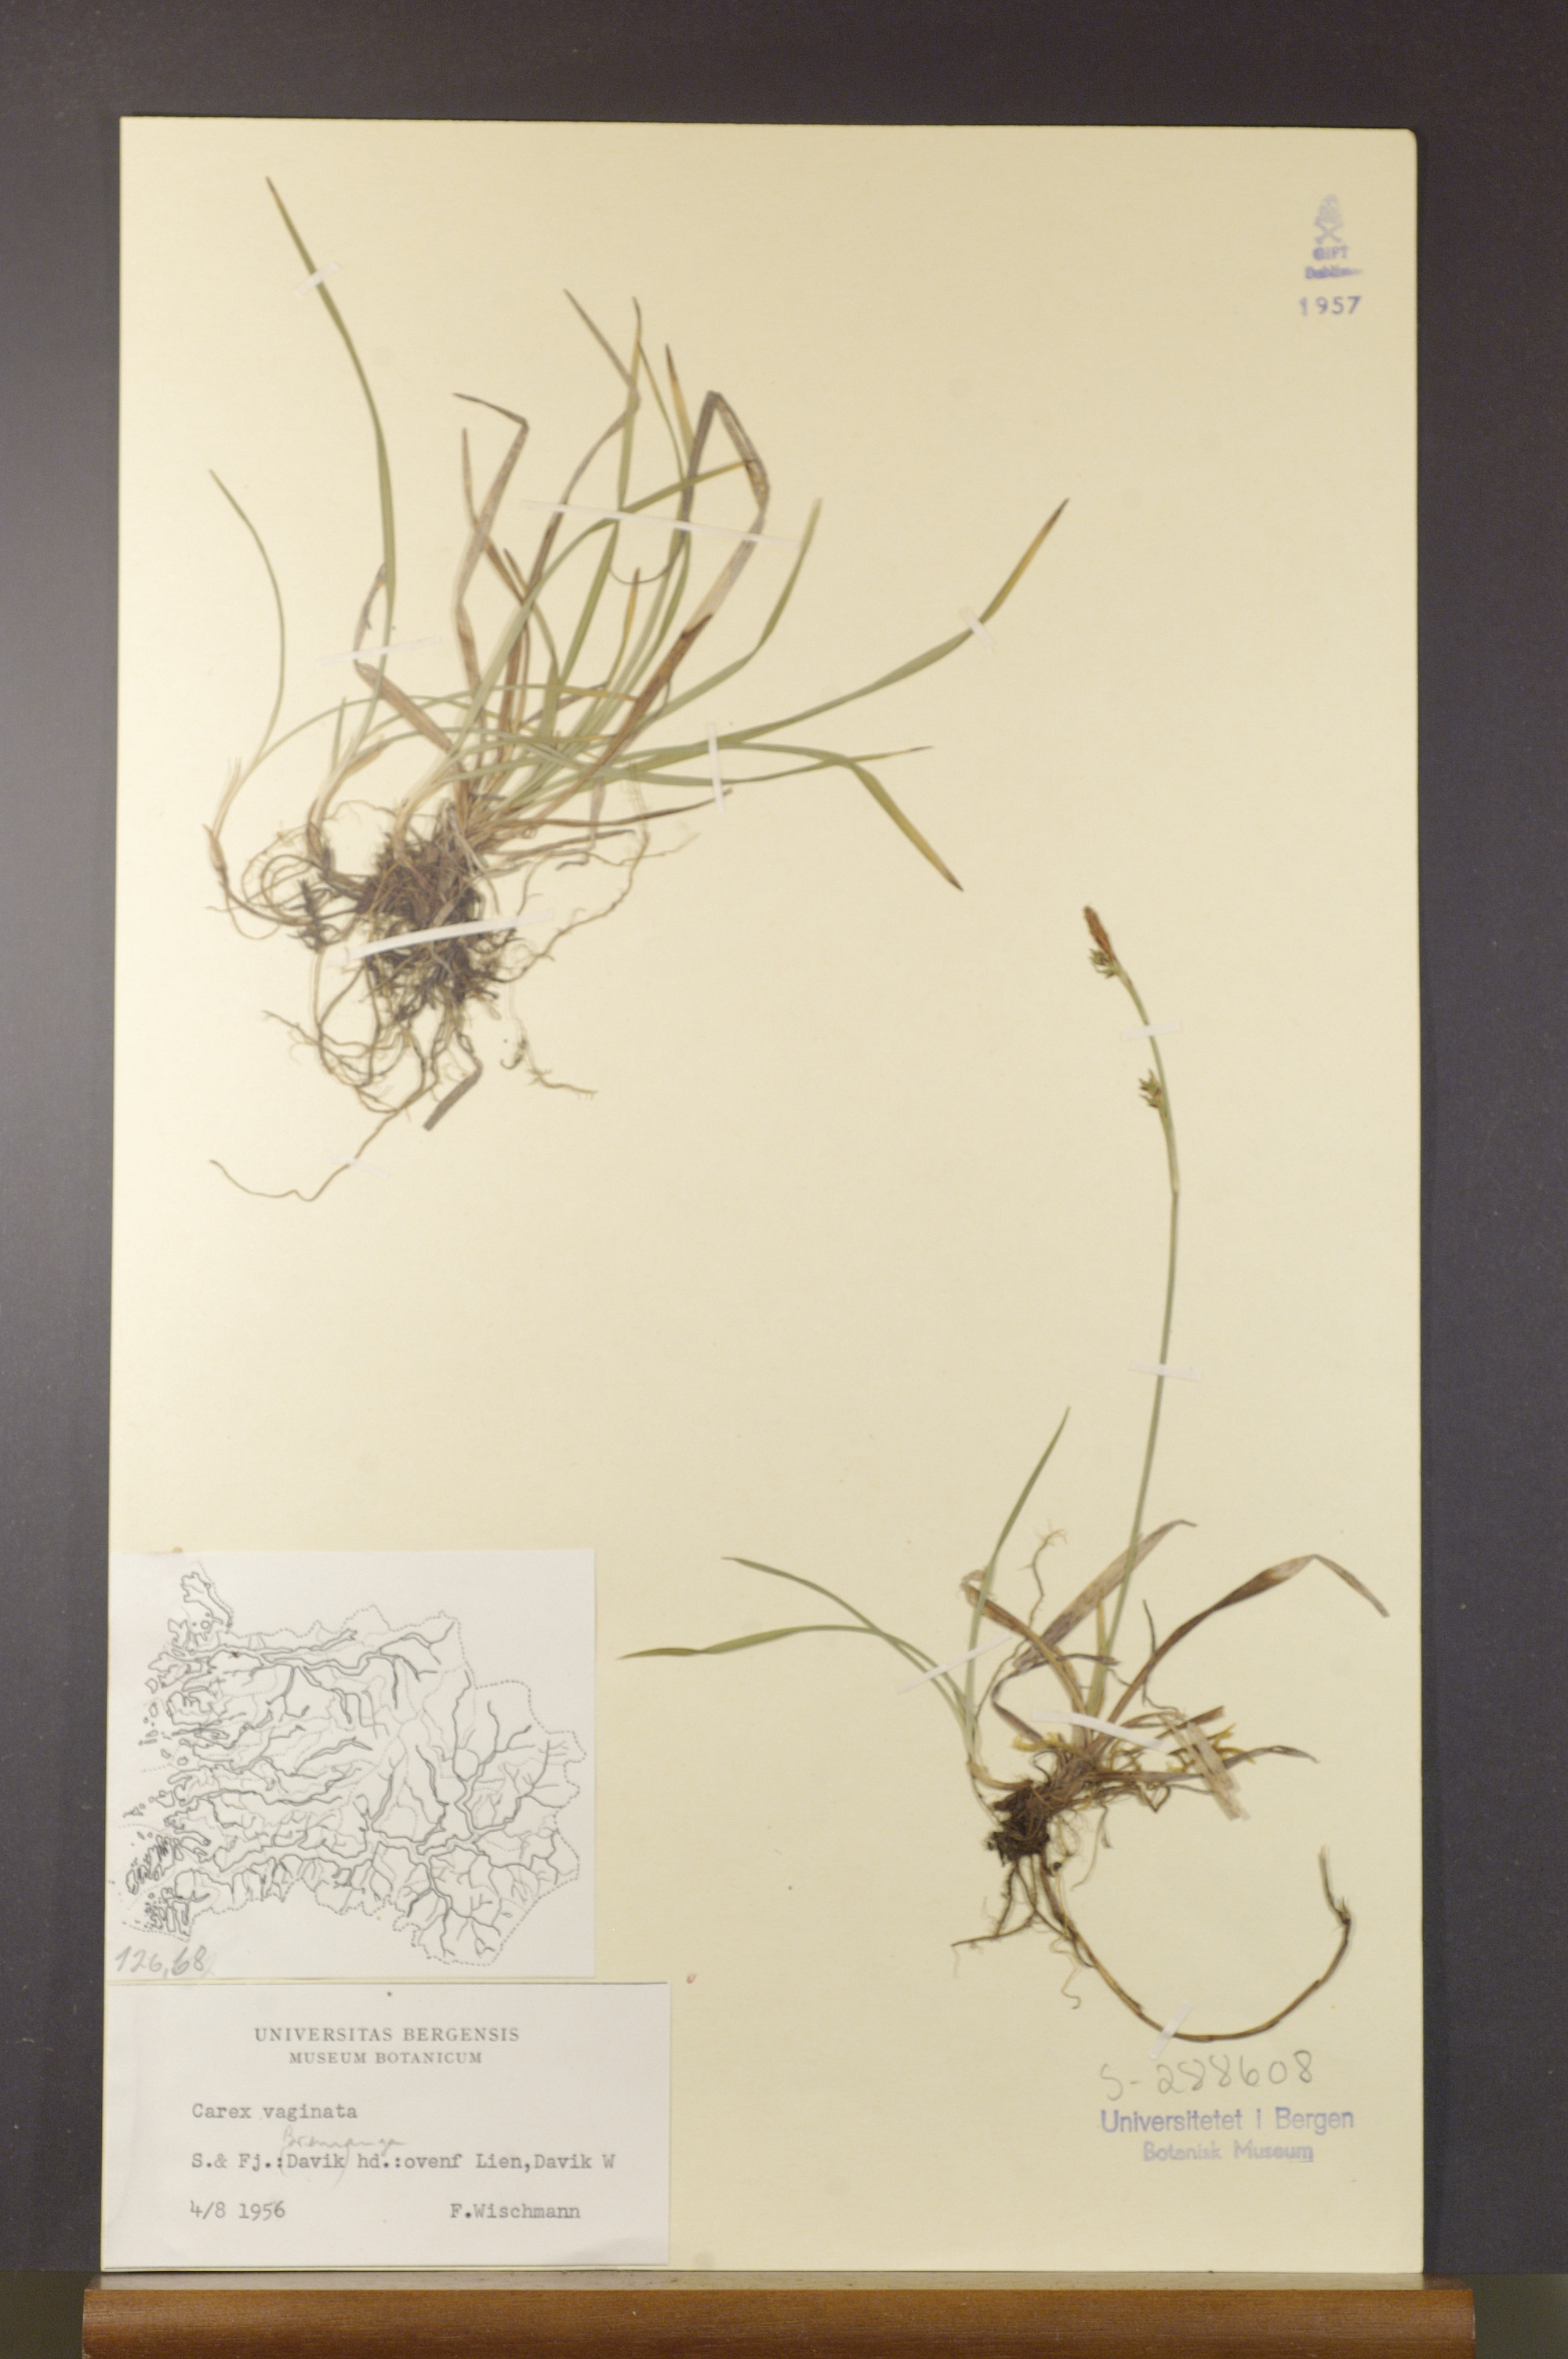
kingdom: Plantae
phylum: Tracheophyta
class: Liliopsida
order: Poales
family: Cyperaceae
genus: Carex
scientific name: Carex vaginata
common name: Sheathed sedge
